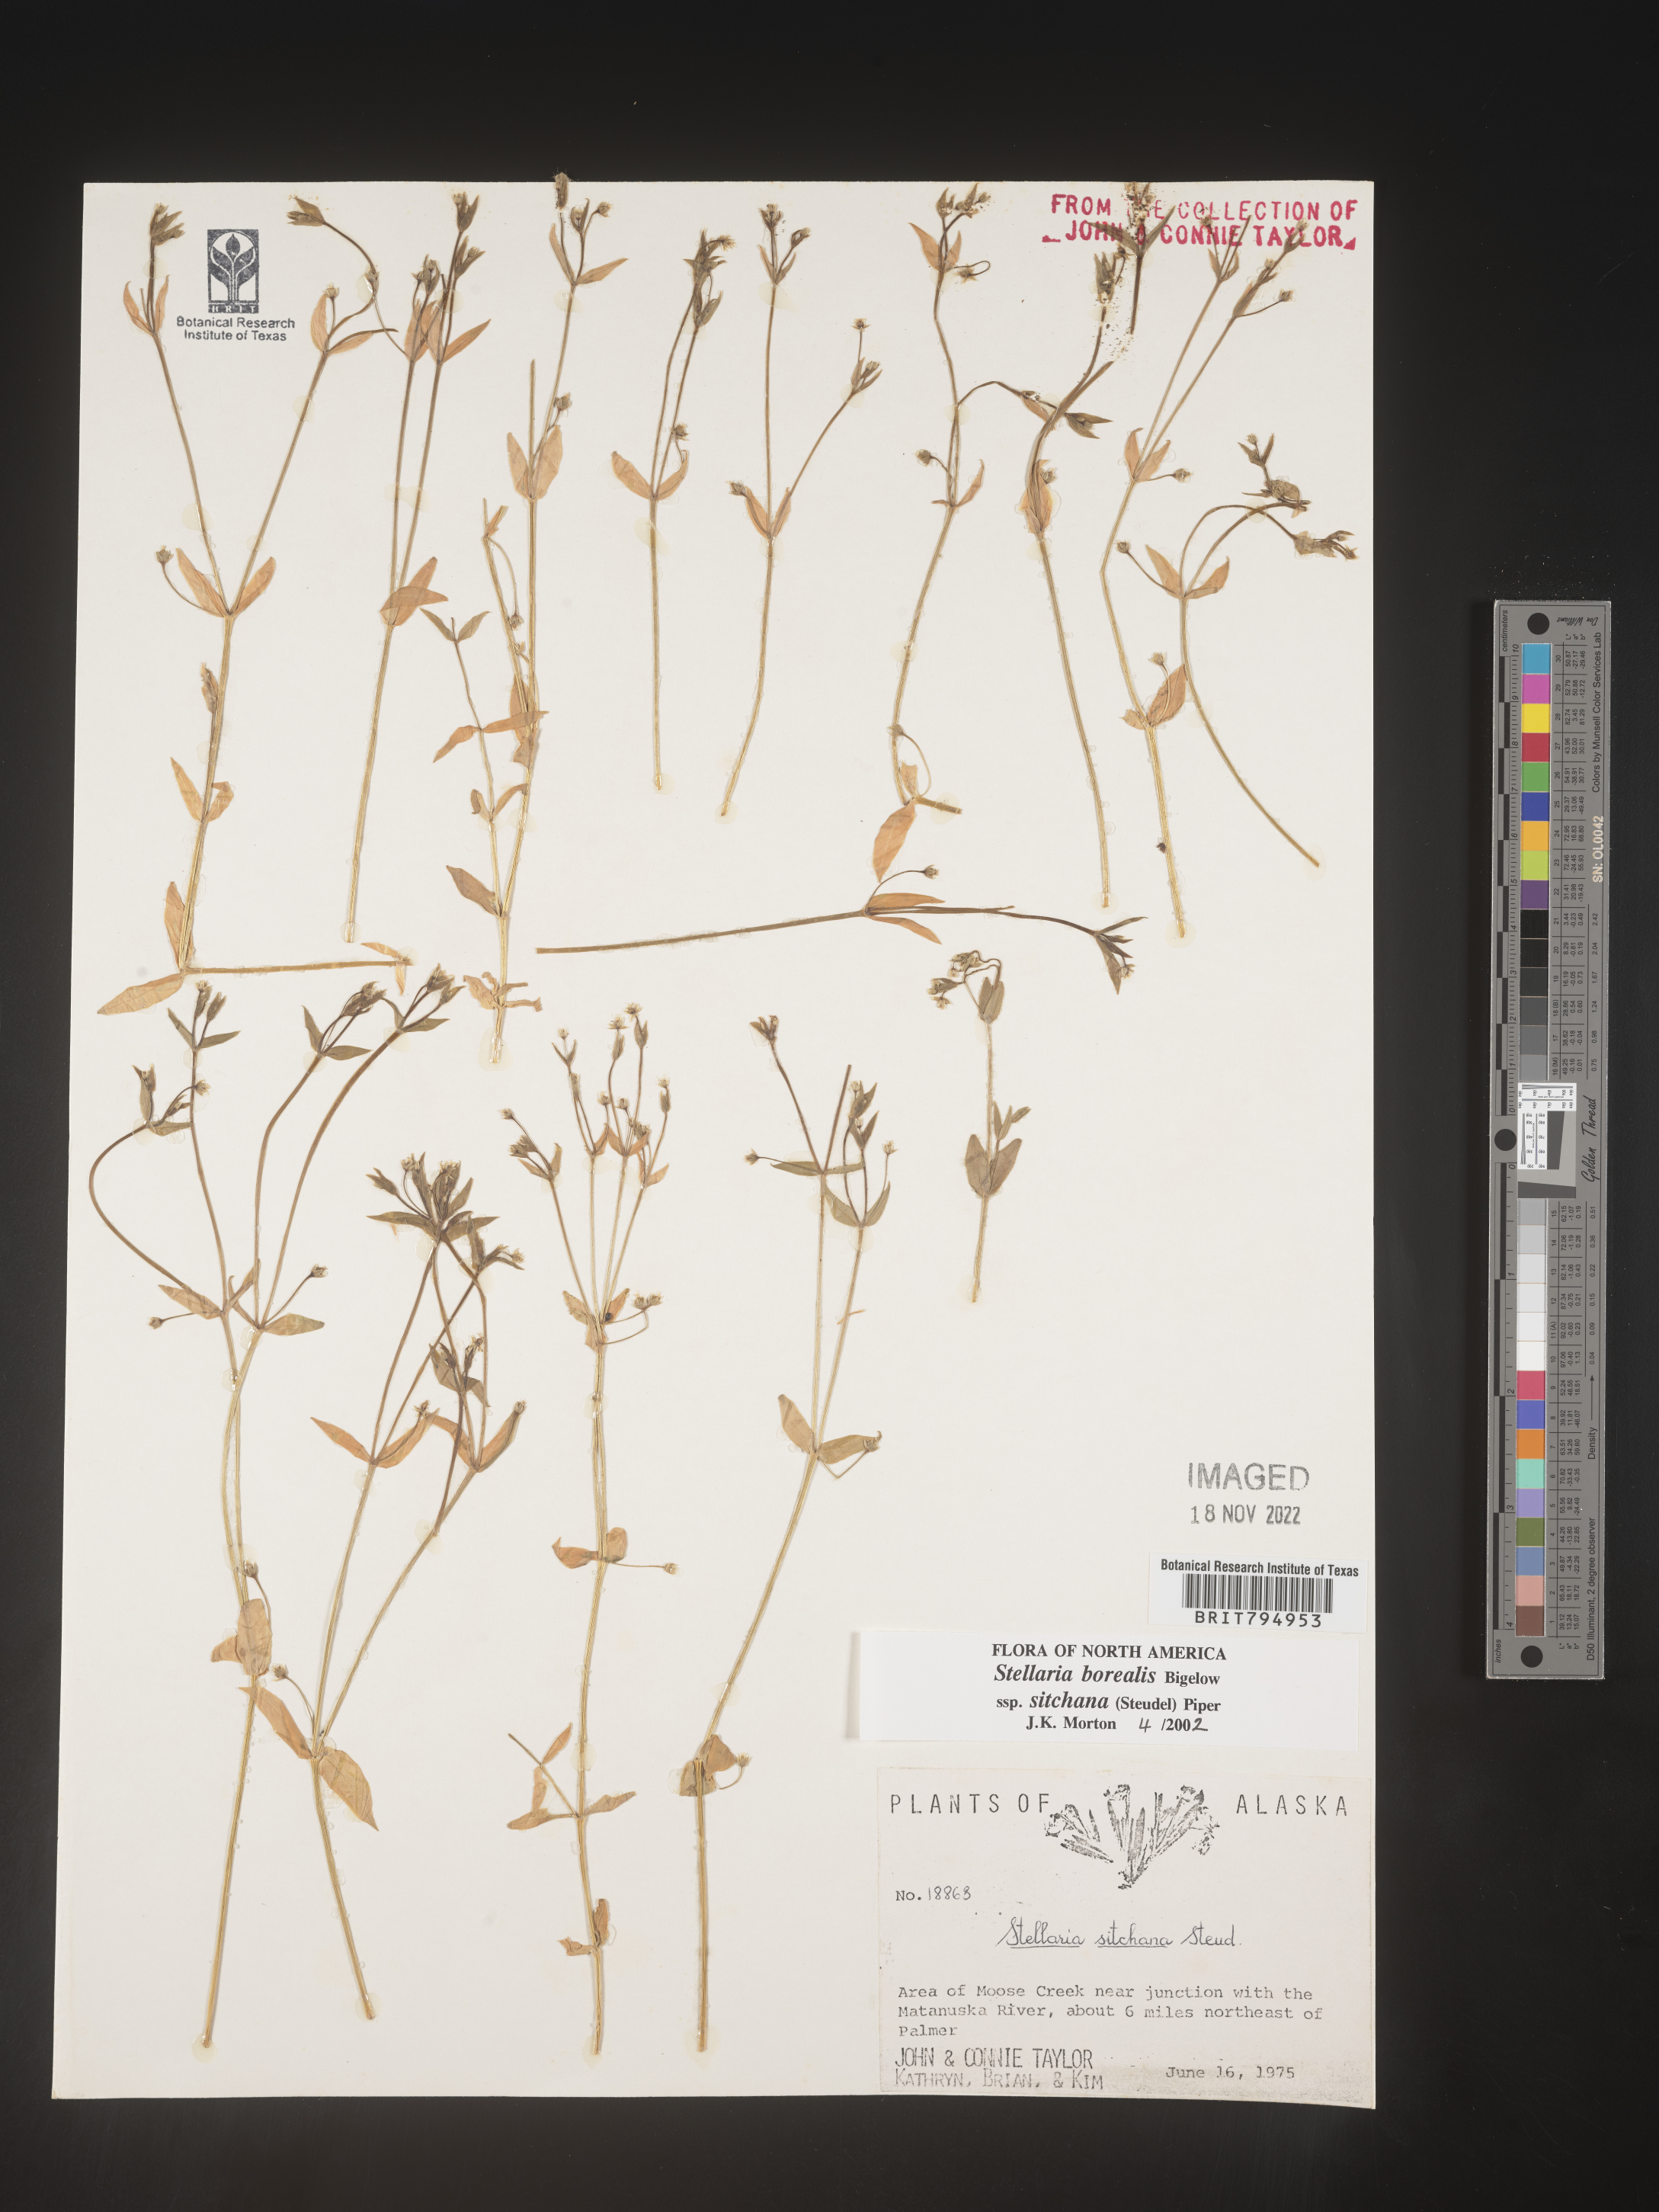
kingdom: Plantae
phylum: Tracheophyta
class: Magnoliopsida
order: Caryophyllales
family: Caryophyllaceae
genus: Stellaria
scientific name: Stellaria sitchana
